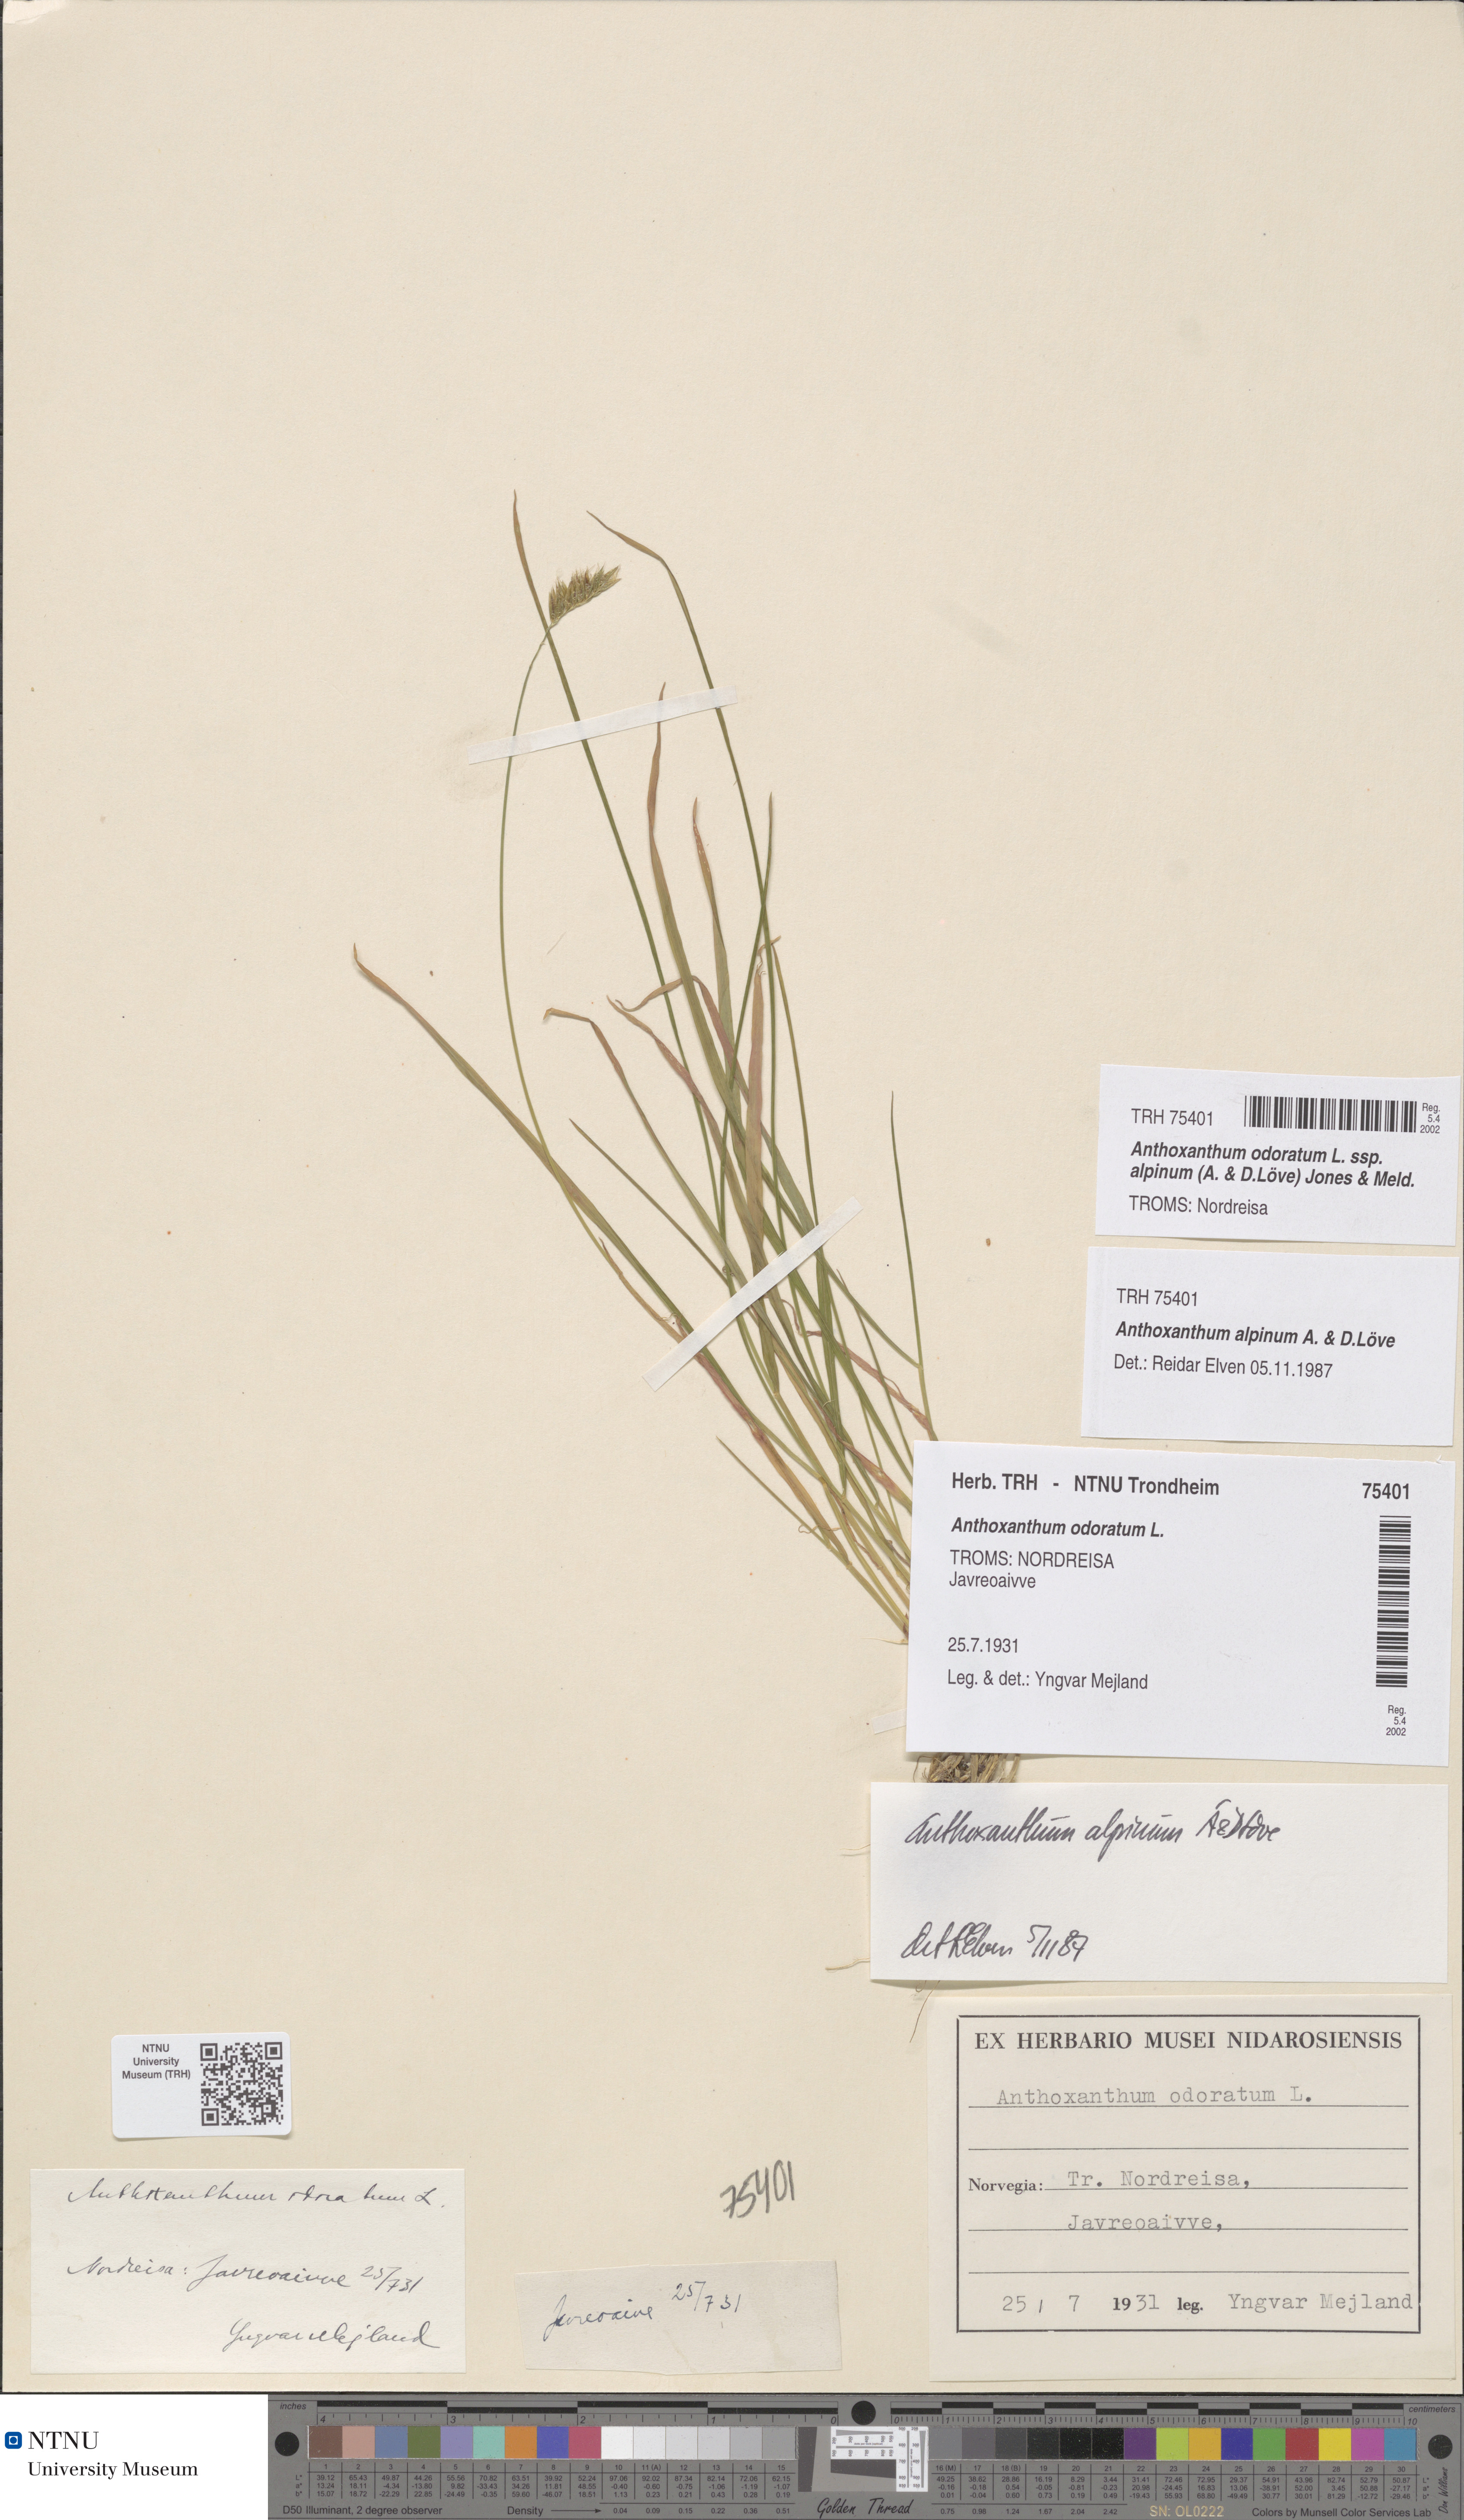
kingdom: Plantae
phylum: Tracheophyta
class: Liliopsida
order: Poales
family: Poaceae
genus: Anthoxanthum
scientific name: Anthoxanthum nipponicum
